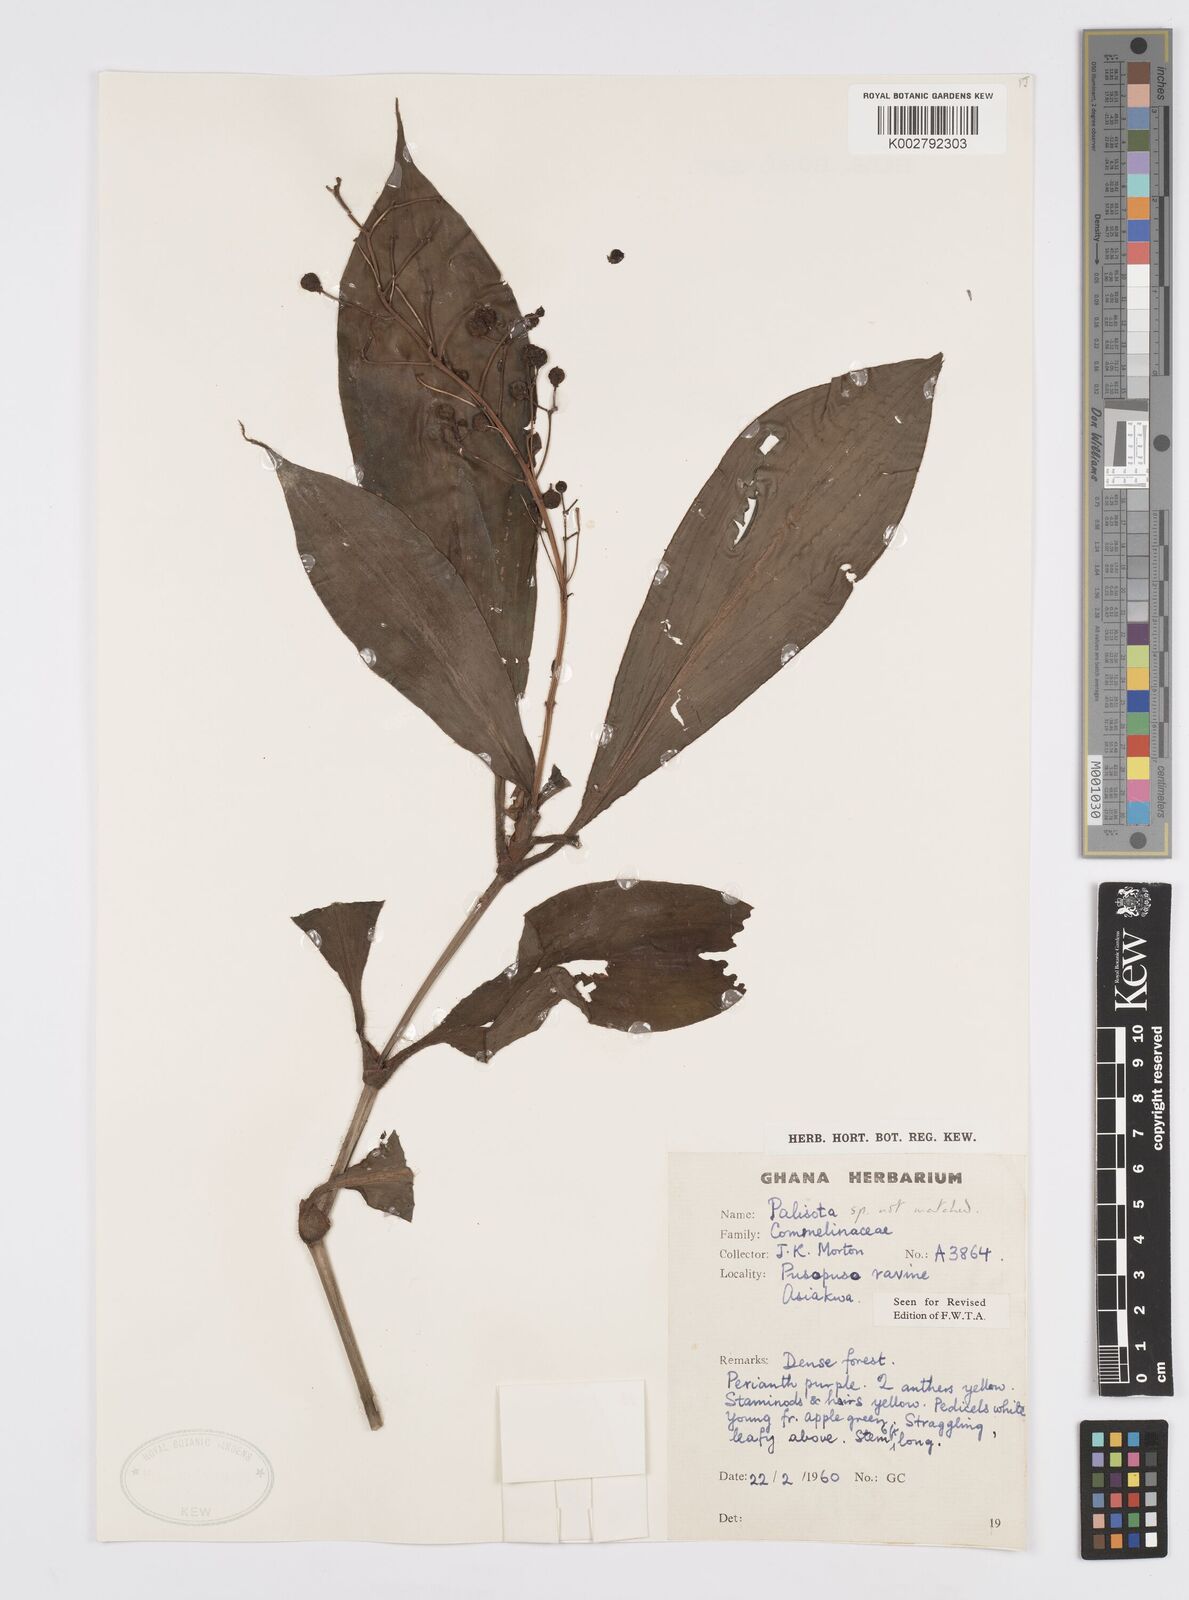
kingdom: Plantae
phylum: Tracheophyta
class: Liliopsida
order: Commelinales
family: Commelinaceae
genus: Palisota
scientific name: Palisota
